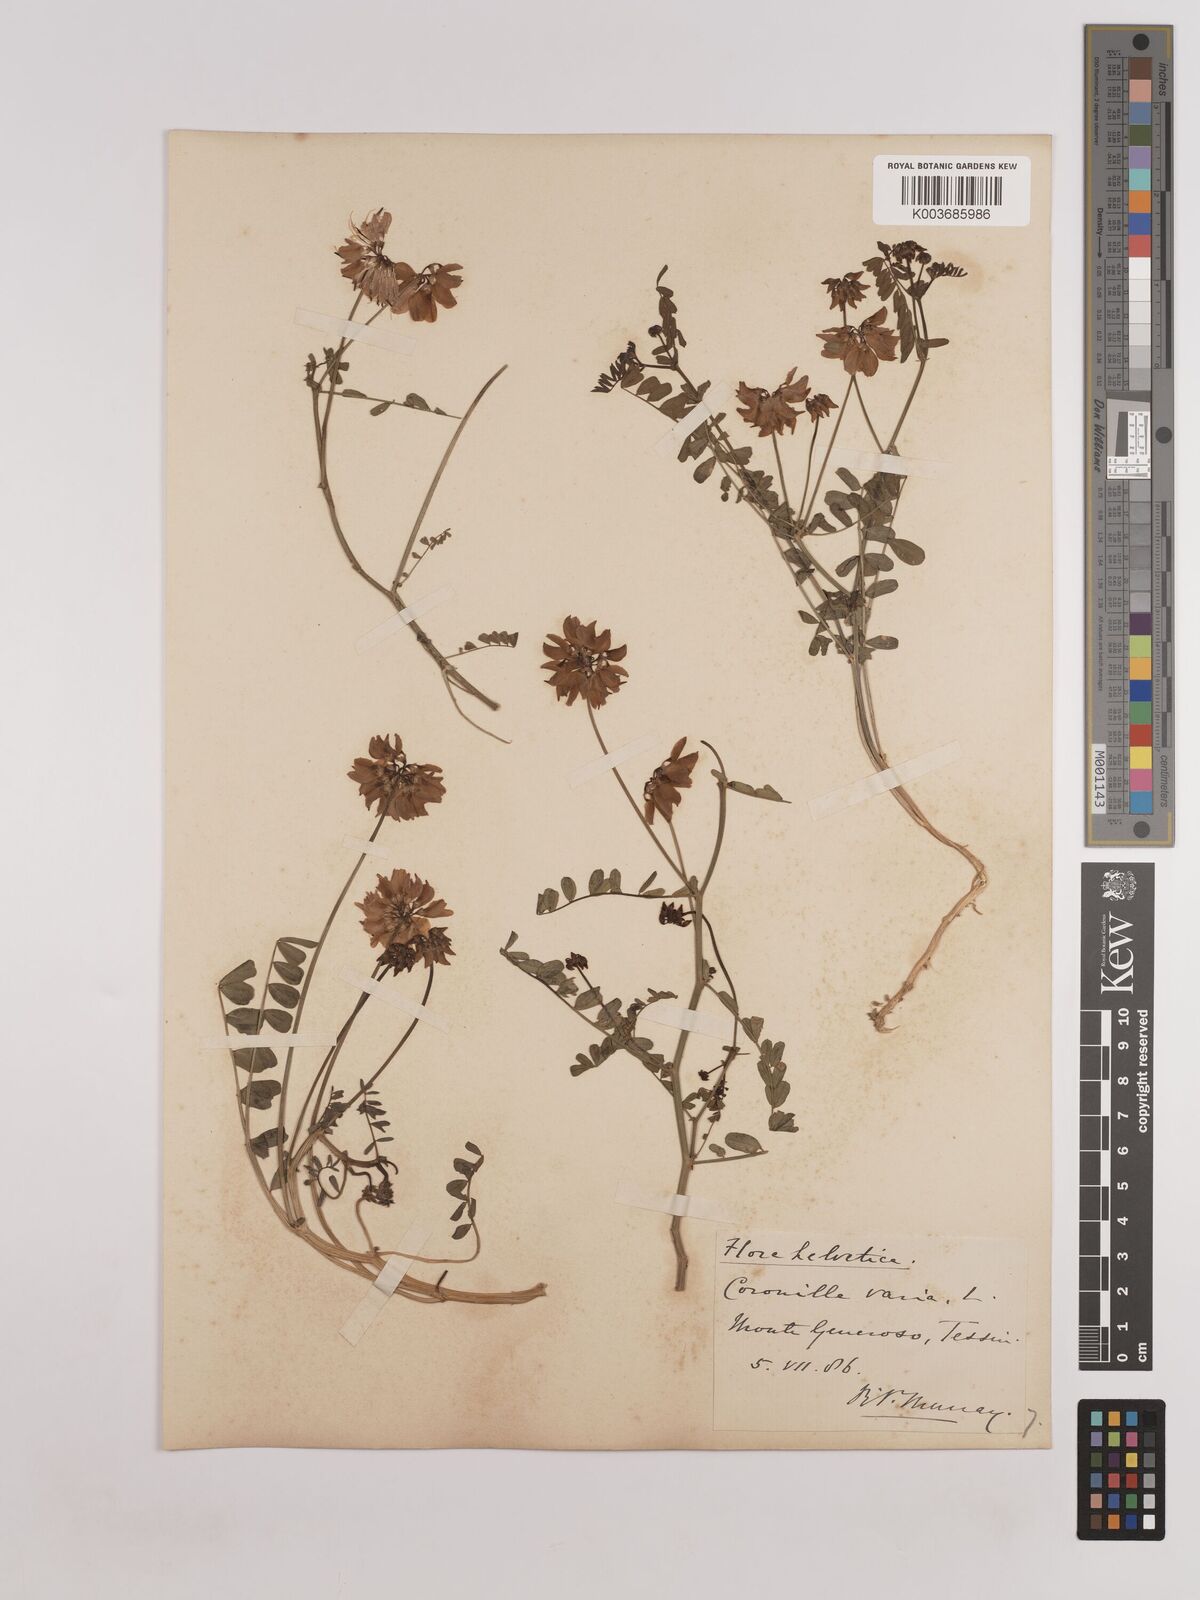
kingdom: Plantae
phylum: Tracheophyta
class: Magnoliopsida
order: Fabales
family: Fabaceae
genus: Coronilla
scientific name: Coronilla varia
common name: Crownvetch
